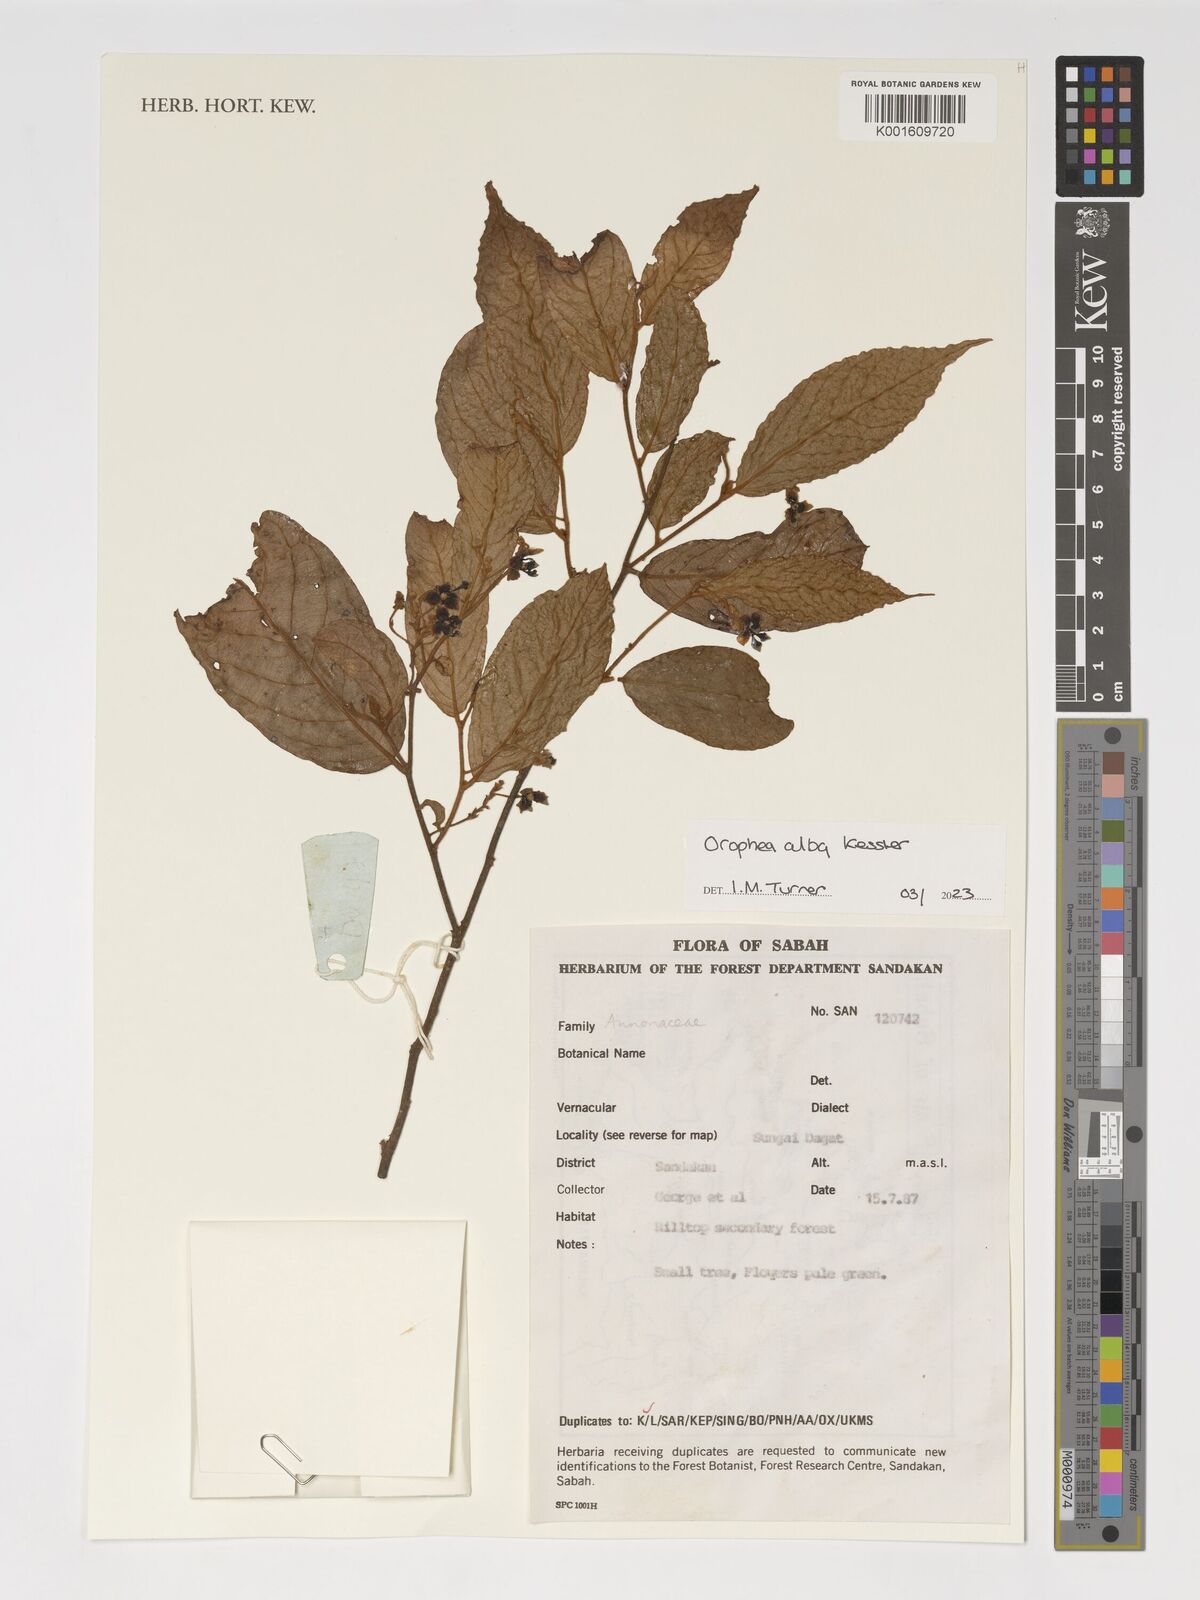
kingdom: Plantae
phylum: Tracheophyta
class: Magnoliopsida
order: Magnoliales
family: Annonaceae
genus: Orophea
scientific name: Orophea alba
